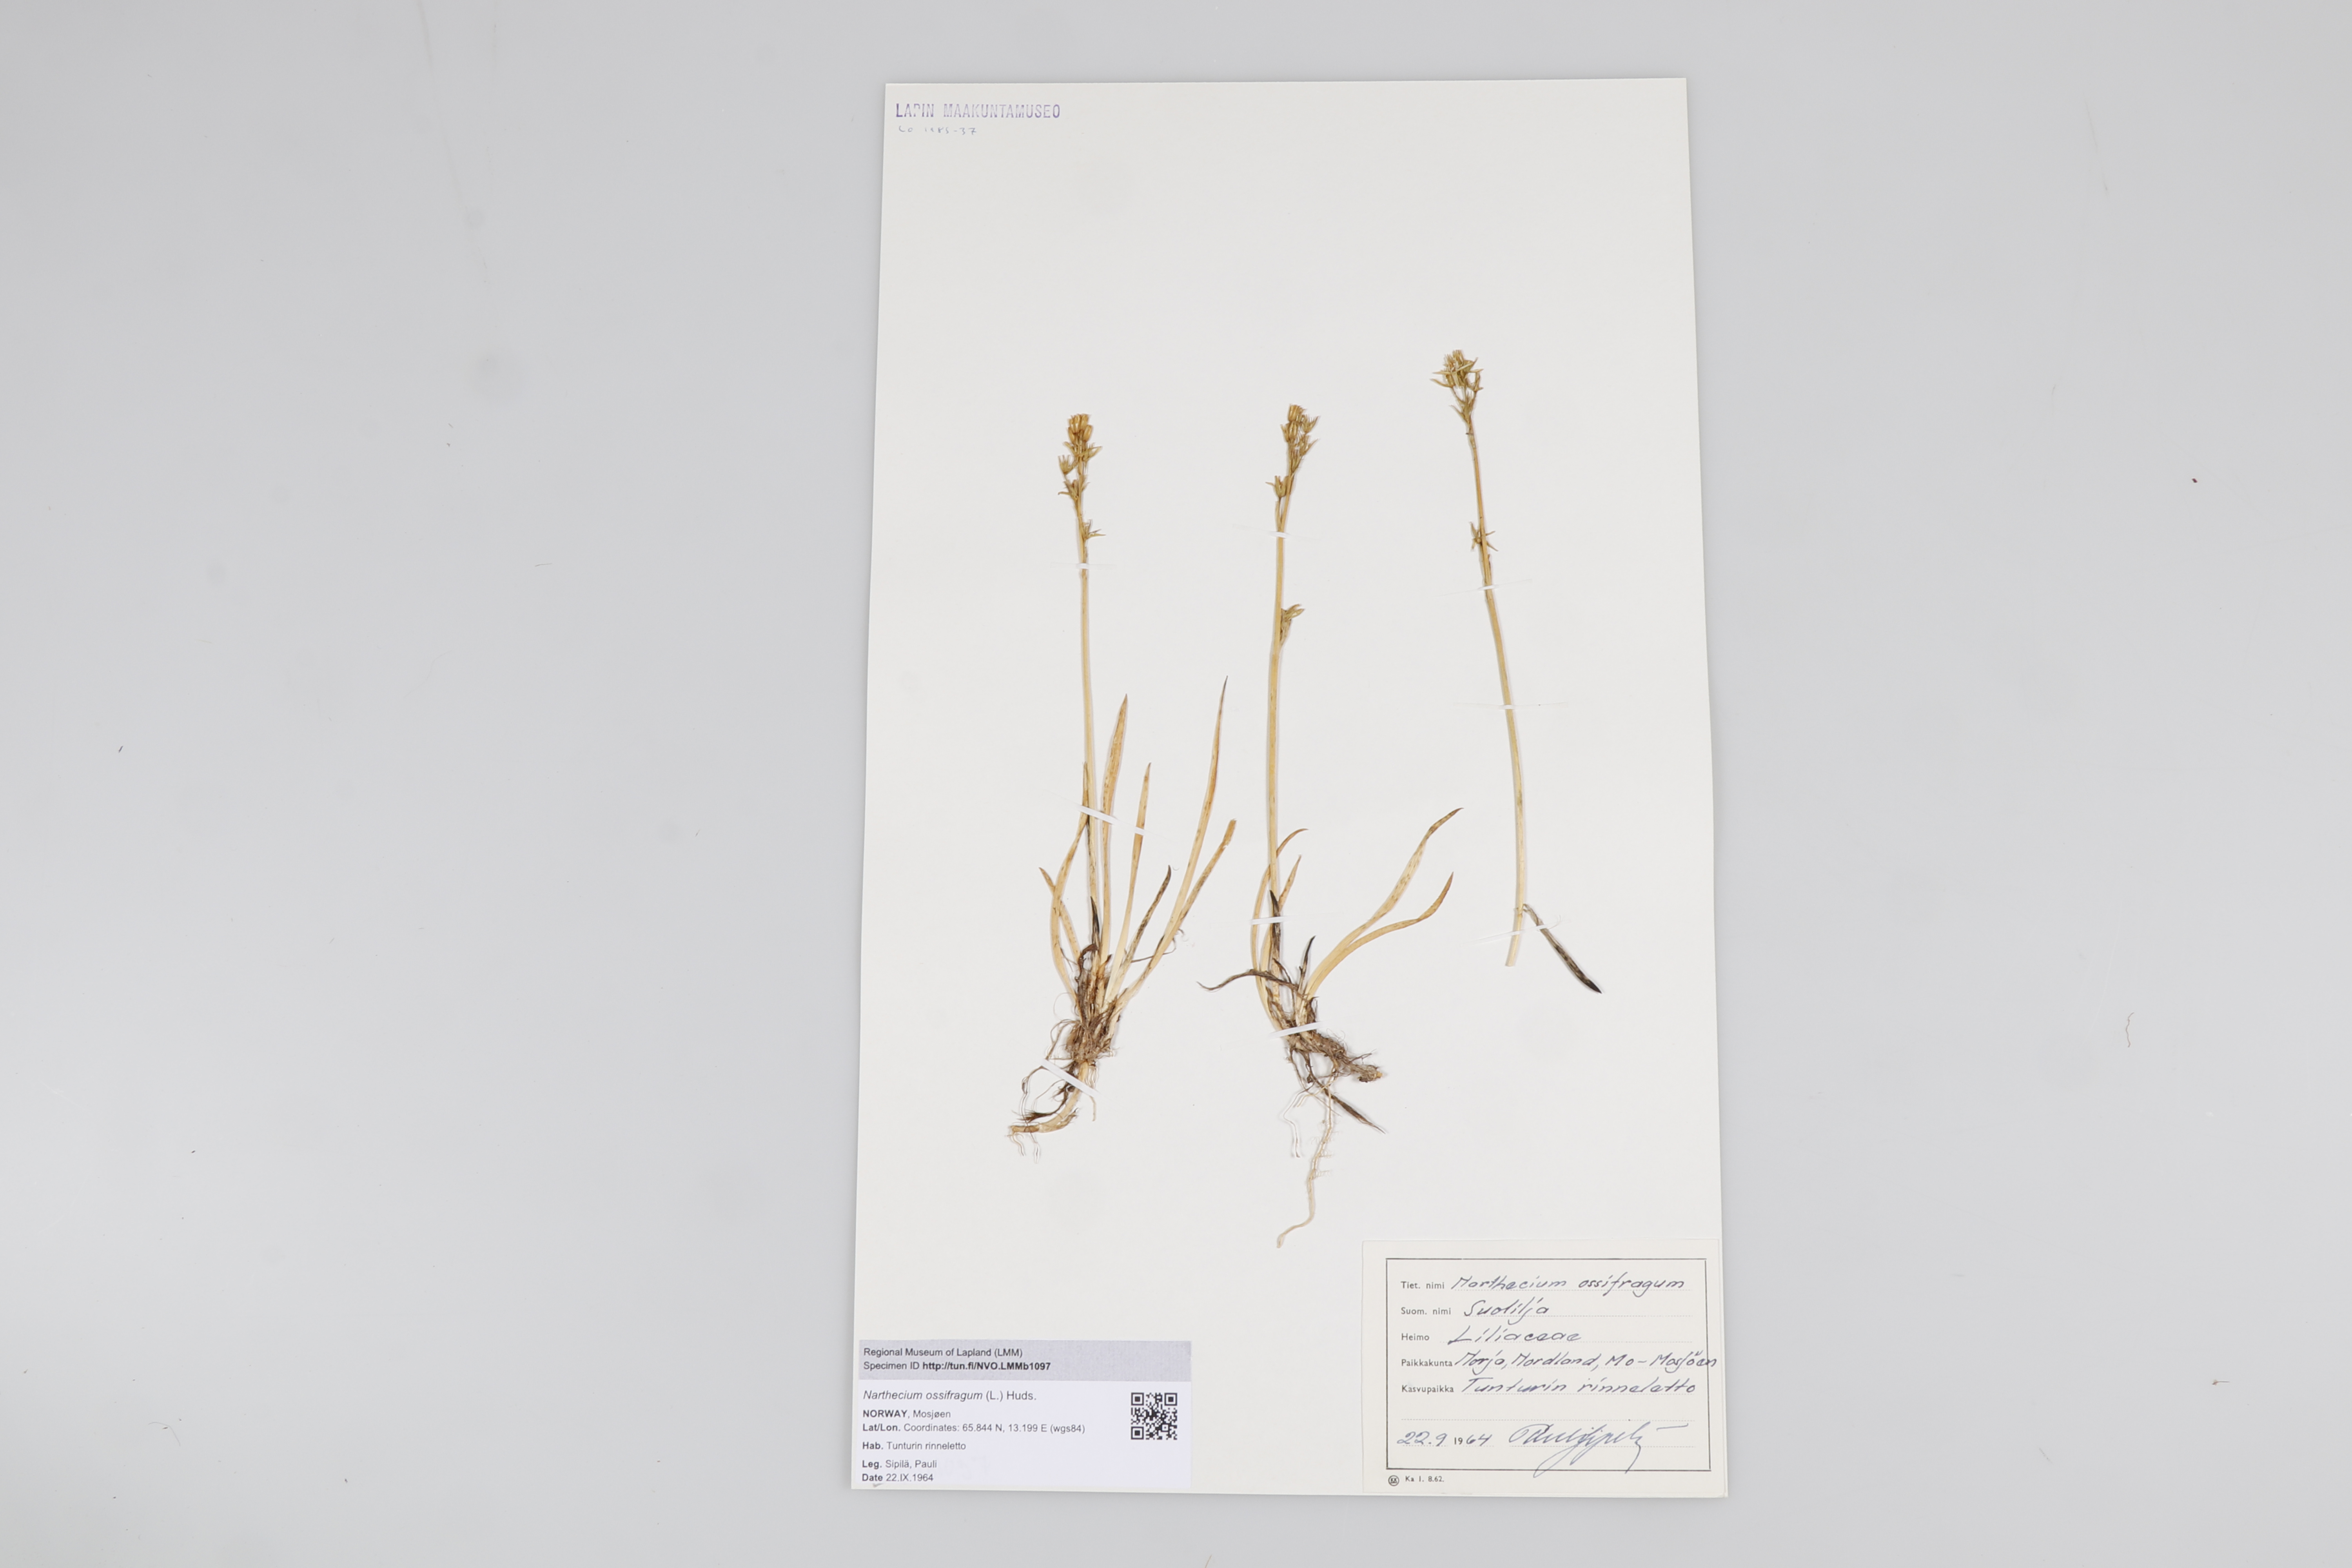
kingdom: Plantae
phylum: Tracheophyta
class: Liliopsida
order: Dioscoreales
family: Nartheciaceae
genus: Narthecium
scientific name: Narthecium ossifragum
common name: Bog asphodel
